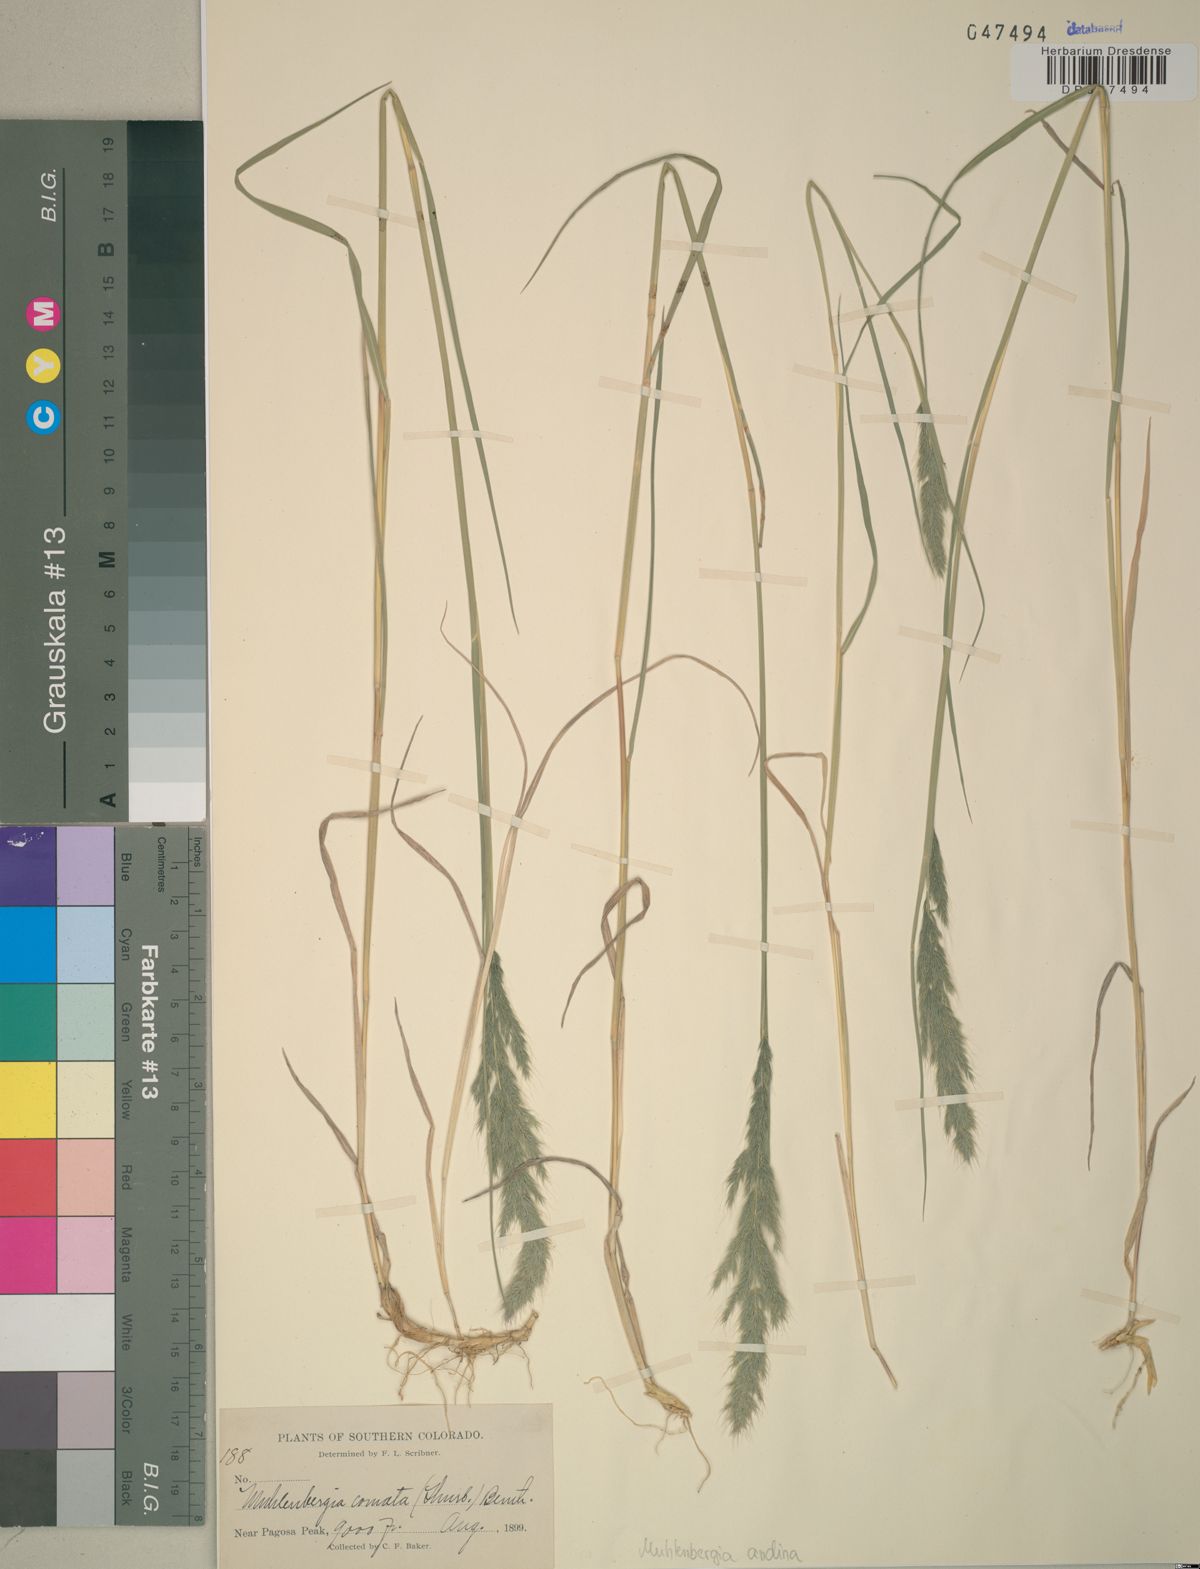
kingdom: Plantae
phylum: Tracheophyta
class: Liliopsida
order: Poales
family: Poaceae
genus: Muhlenbergia
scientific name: Muhlenbergia andina
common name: Foxtail muhly
